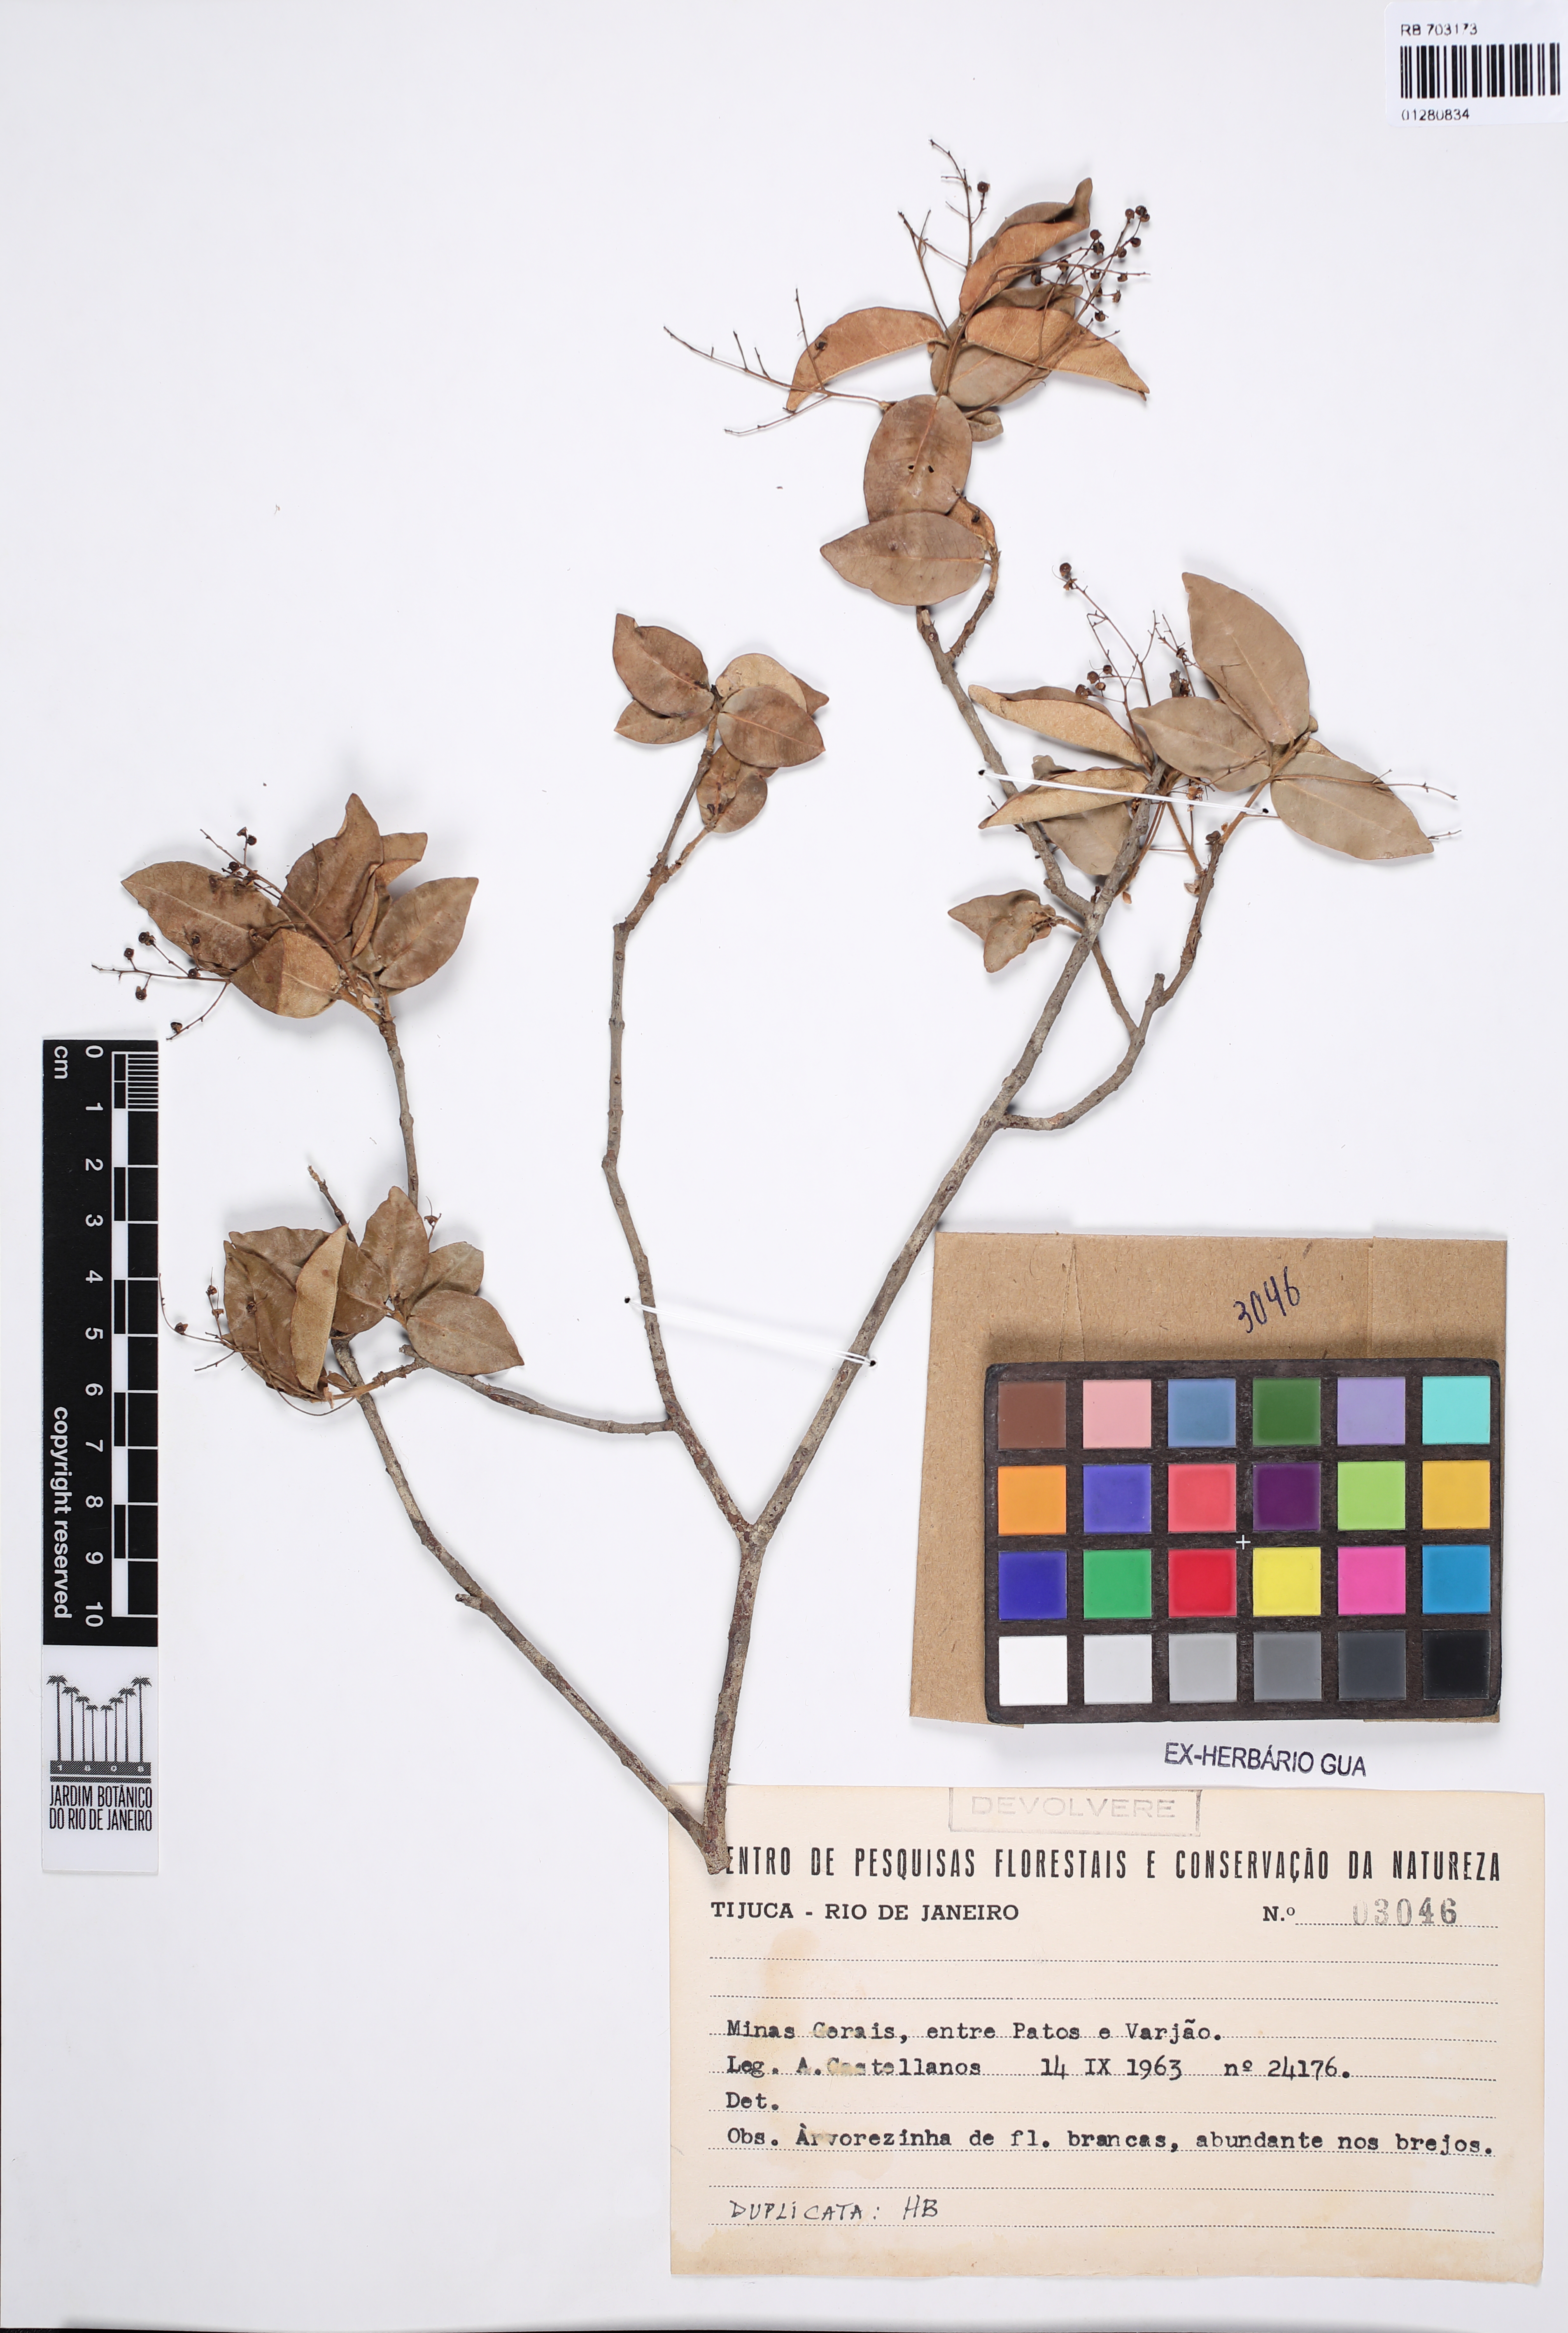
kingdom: Plantae
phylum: Tracheophyta
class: Magnoliopsida
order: Myrtales
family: Myrtaceae
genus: Myrcia
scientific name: Myrcia laruotteana
